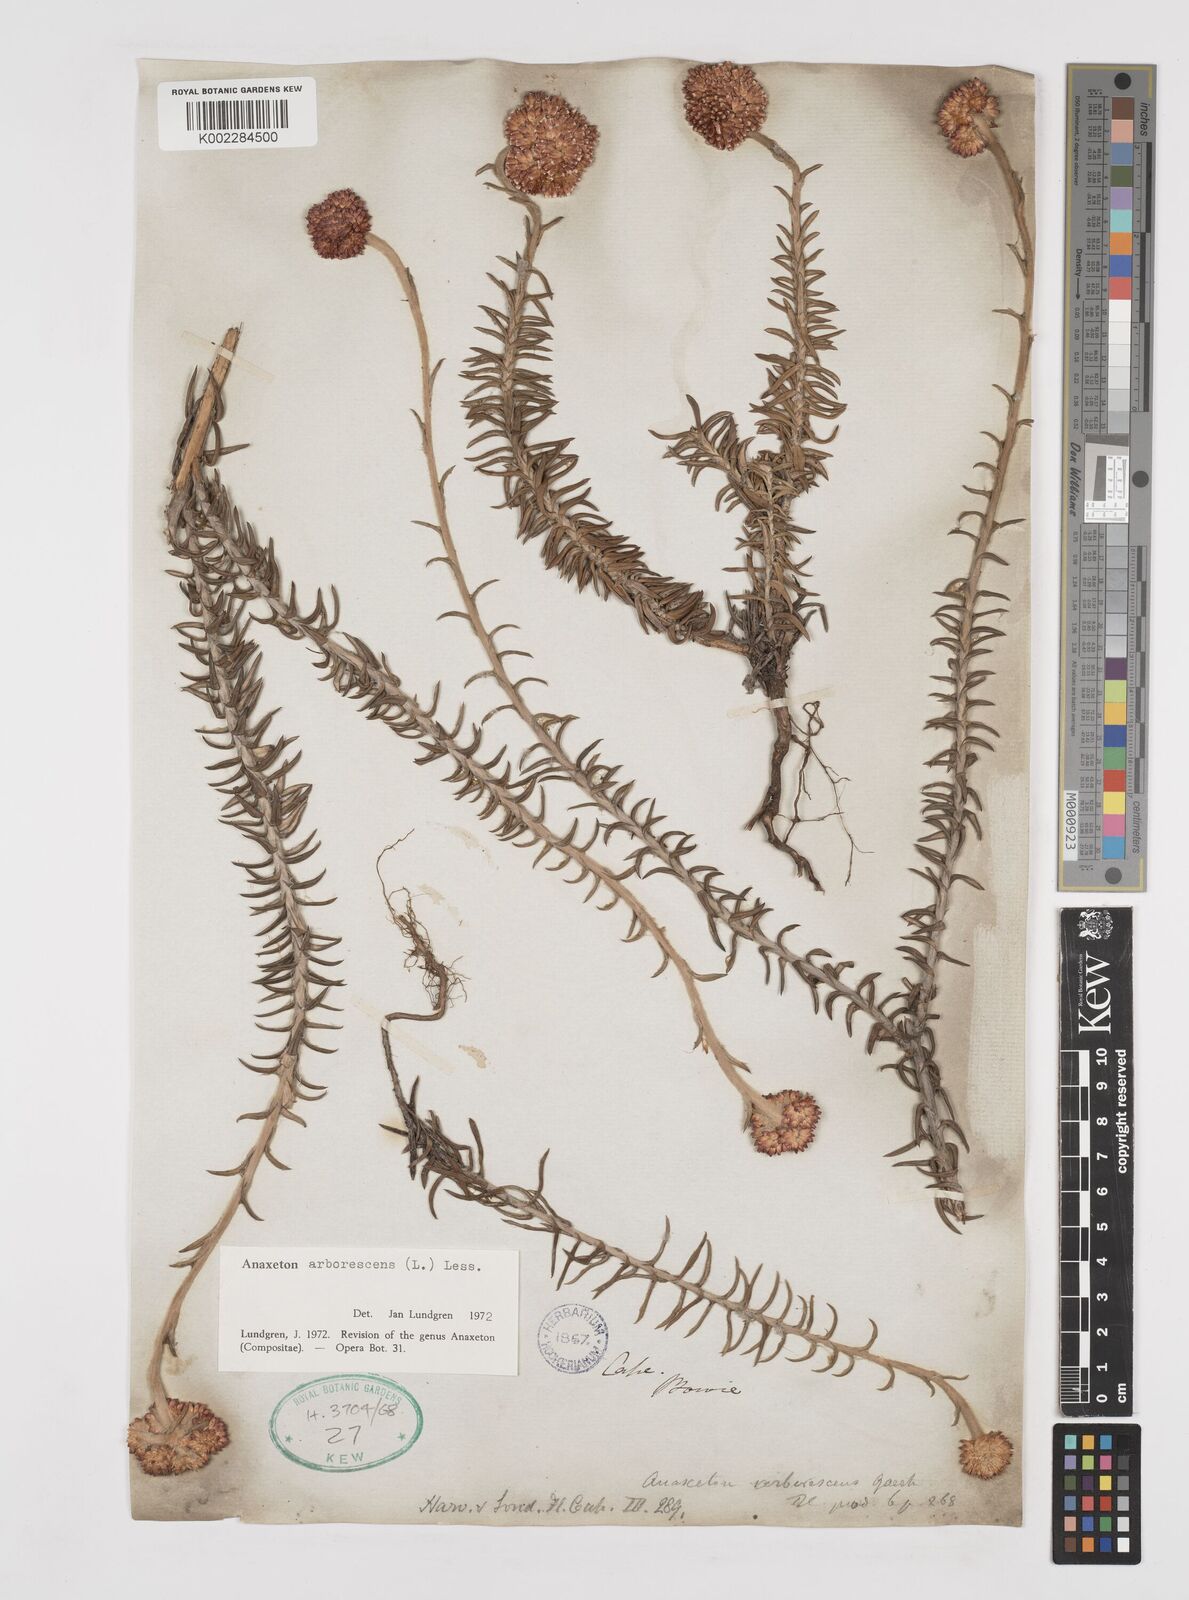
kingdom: Plantae
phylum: Tracheophyta
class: Magnoliopsida
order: Asterales
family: Asteraceae
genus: Anaxeton
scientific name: Anaxeton arborescens
